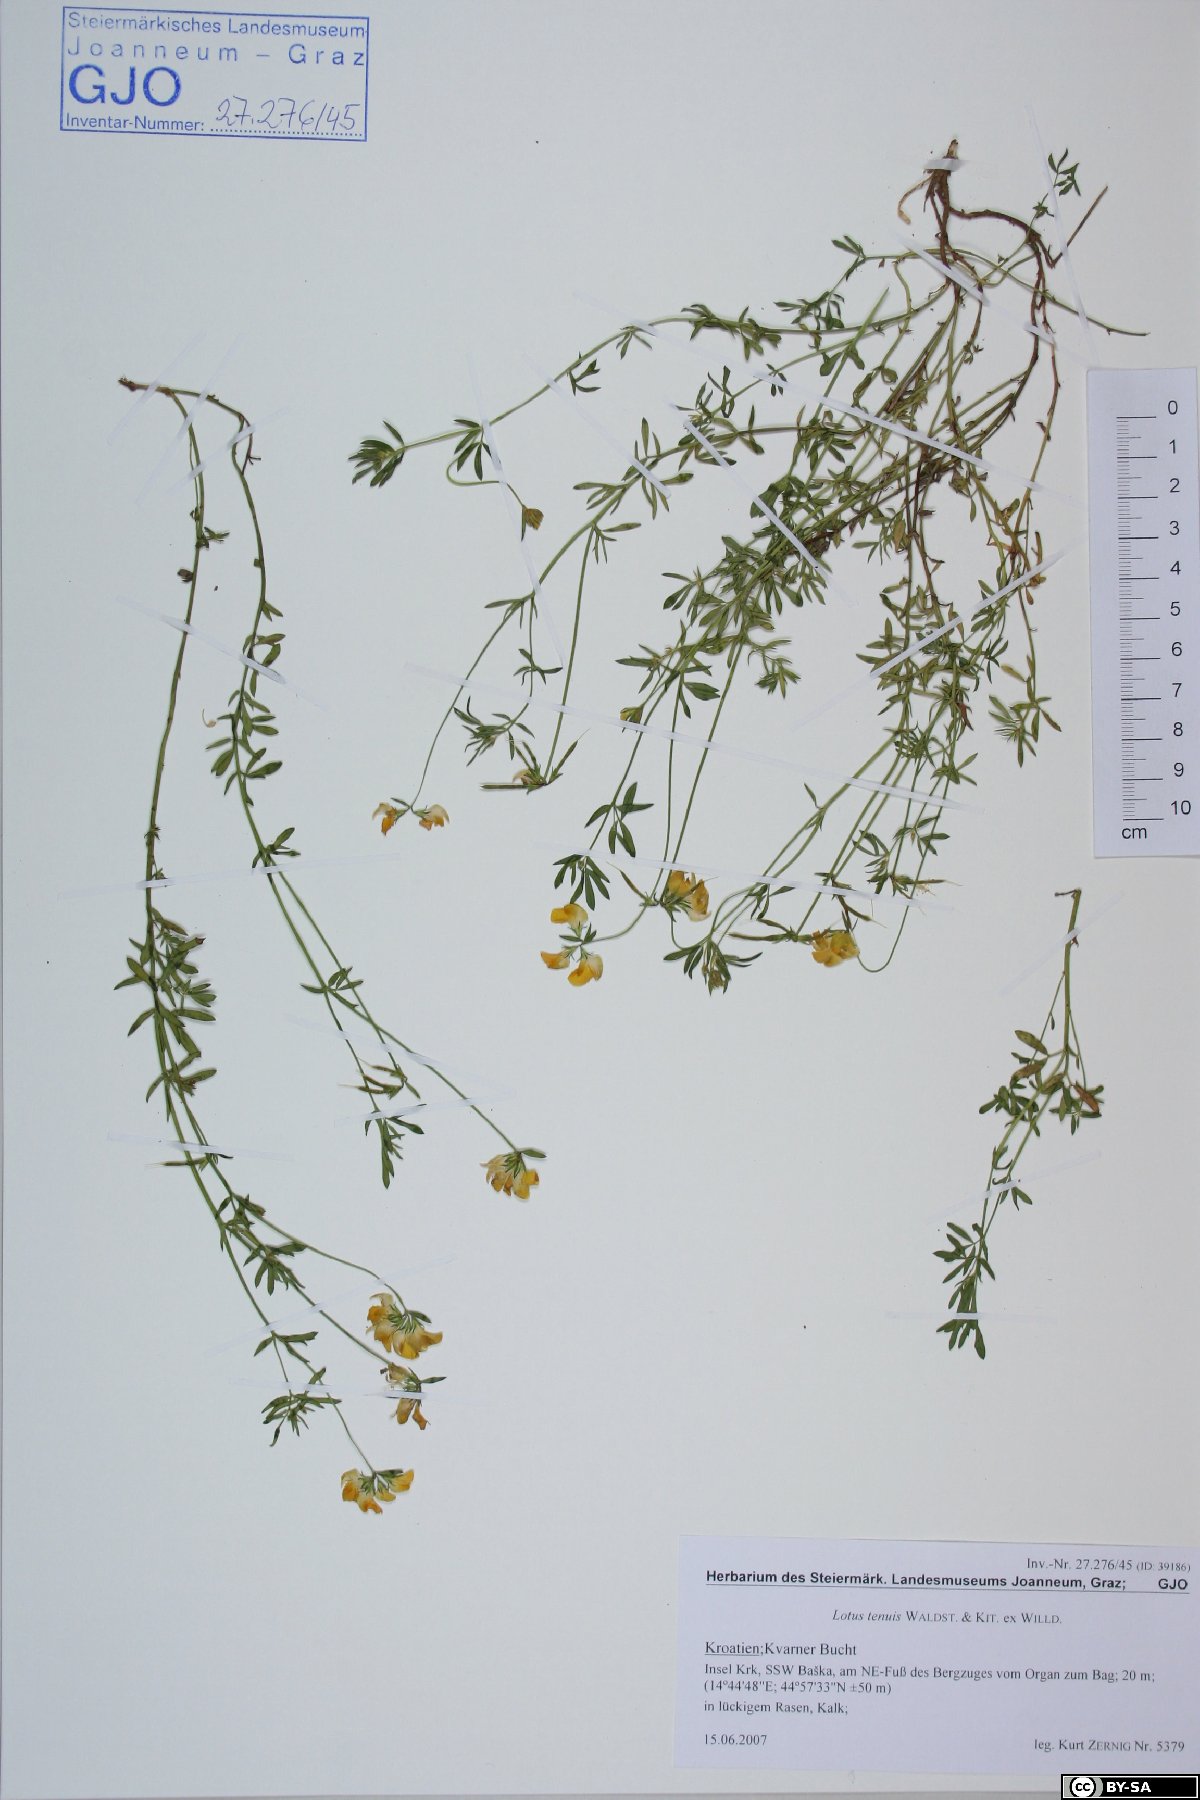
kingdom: Plantae
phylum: Tracheophyta
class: Magnoliopsida
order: Fabales
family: Fabaceae
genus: Lotus
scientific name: Lotus tenuis
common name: Narrow-leaved bird's-foot-trefoil
